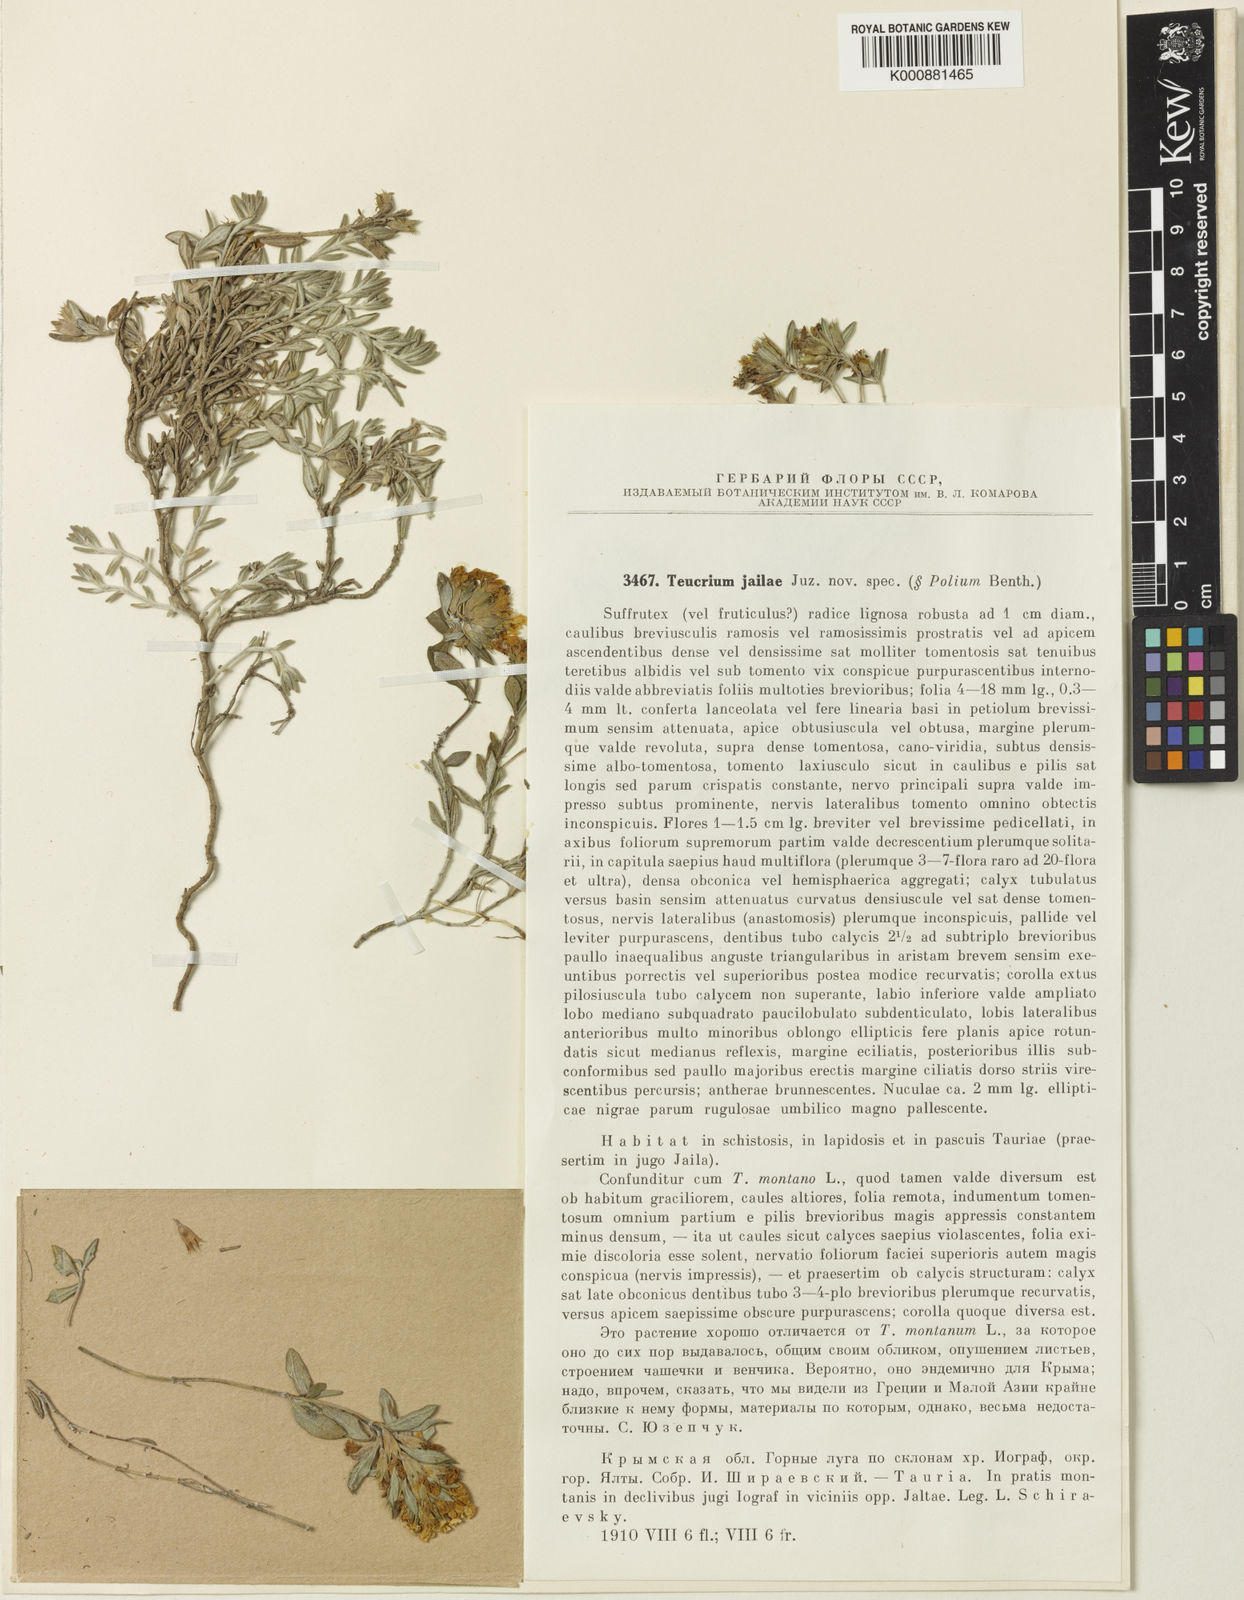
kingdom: Plantae
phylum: Tracheophyta
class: Magnoliopsida
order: Lamiales
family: Lamiaceae
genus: Teucrium
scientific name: Teucrium montanum
